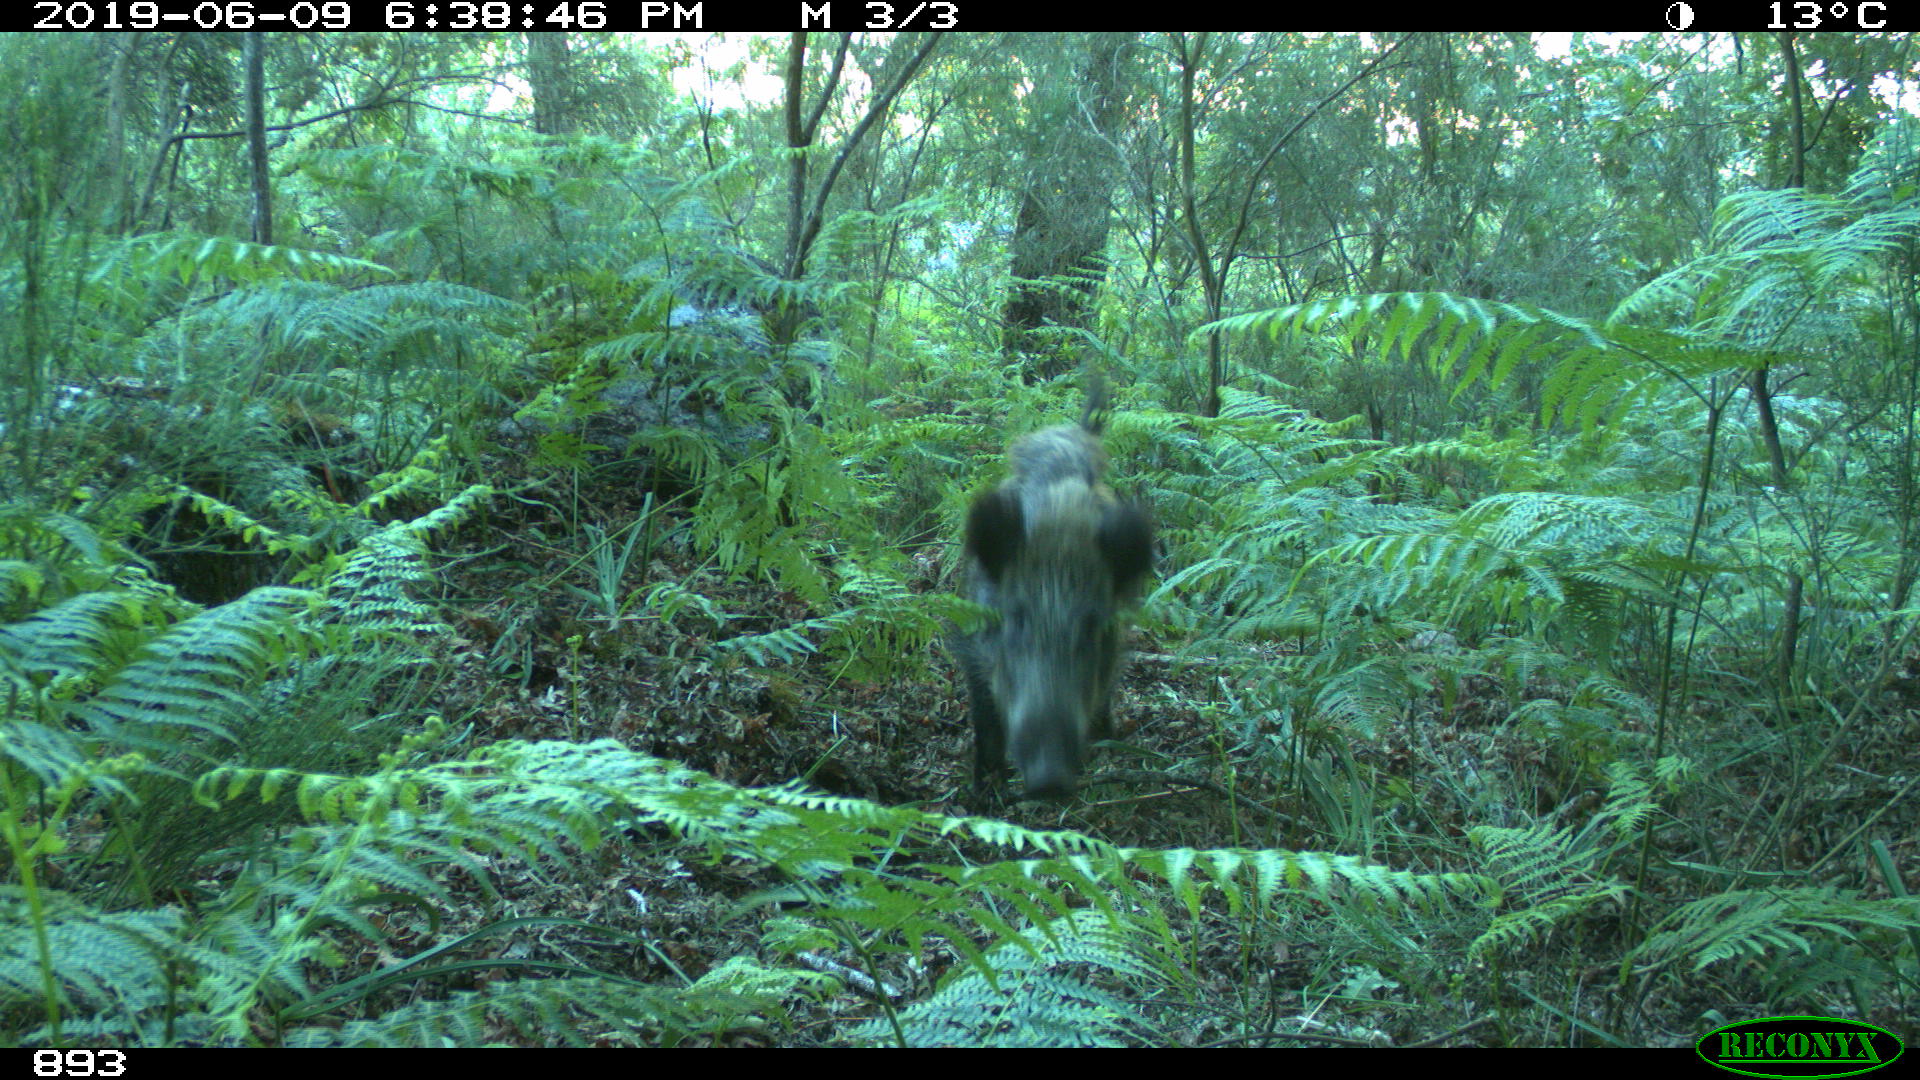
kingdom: Animalia
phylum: Chordata
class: Mammalia
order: Artiodactyla
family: Suidae
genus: Sus
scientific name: Sus scrofa
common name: Wild boar
